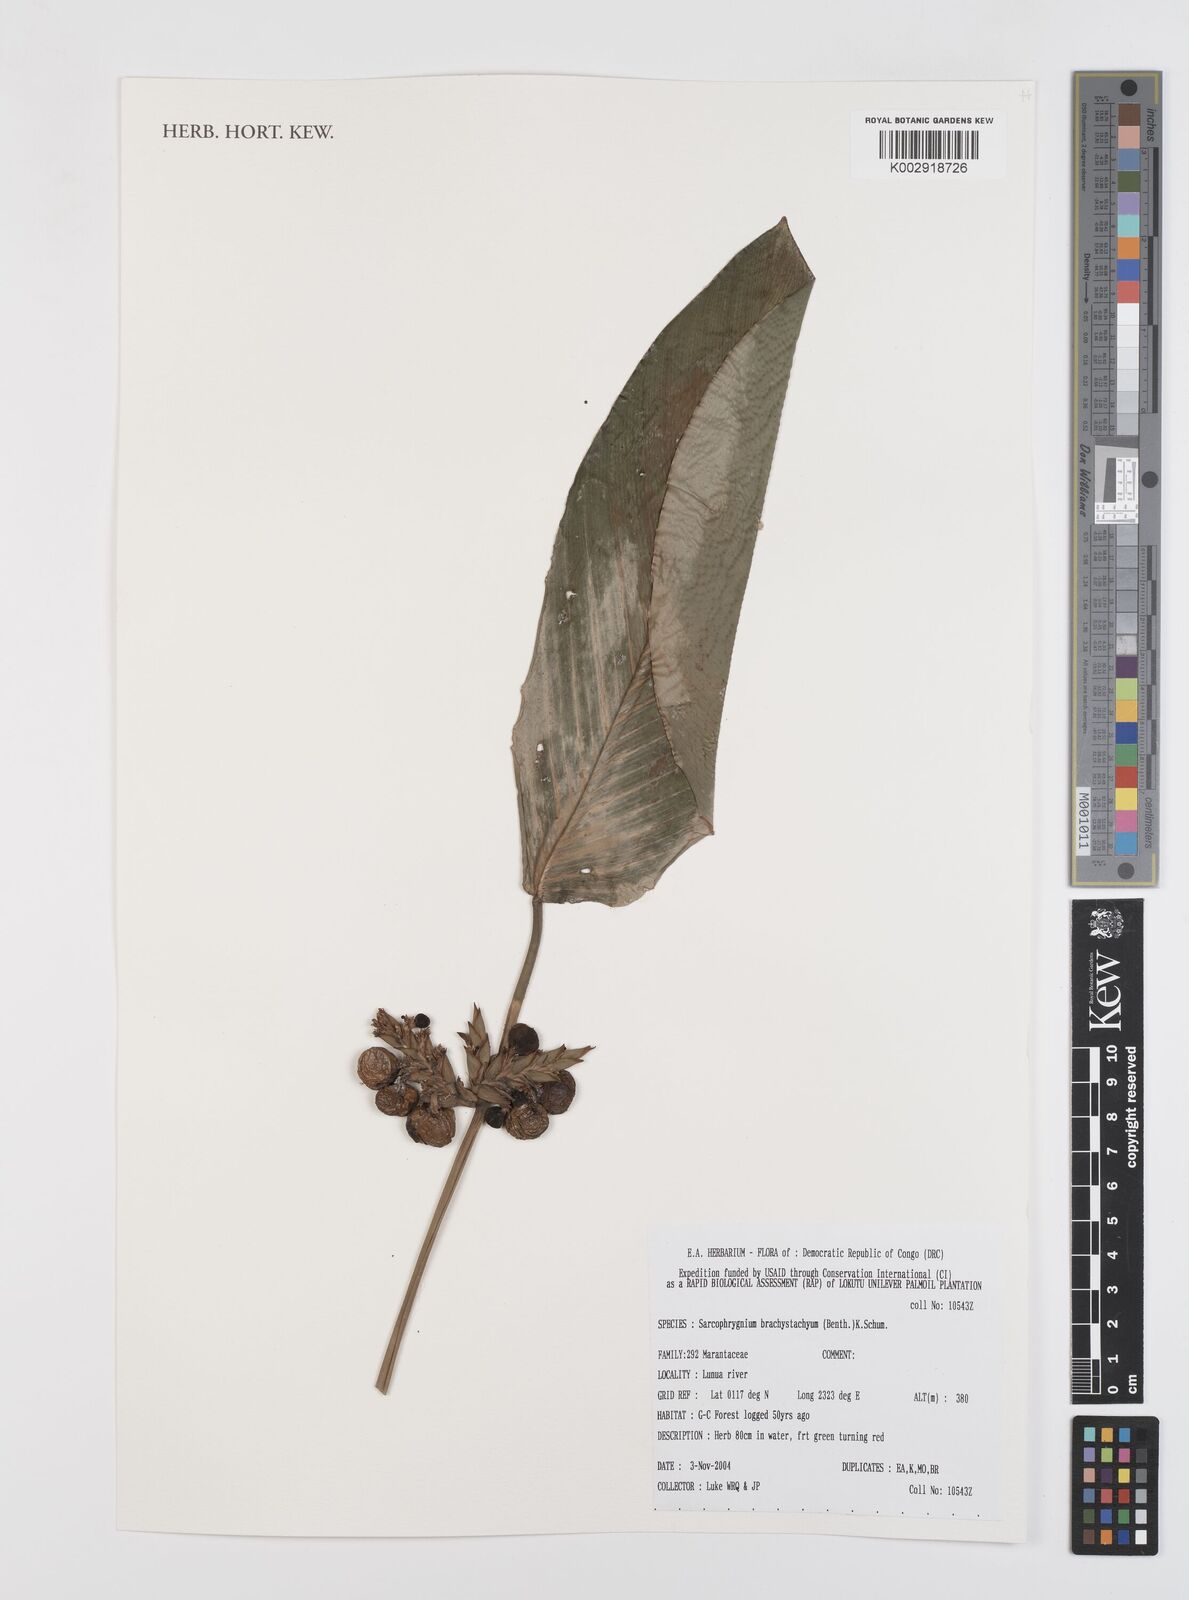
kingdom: Plantae
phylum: Tracheophyta
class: Liliopsida
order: Zingiberales
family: Marantaceae
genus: Sarcophrynium
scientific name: Sarcophrynium brachystachyum
